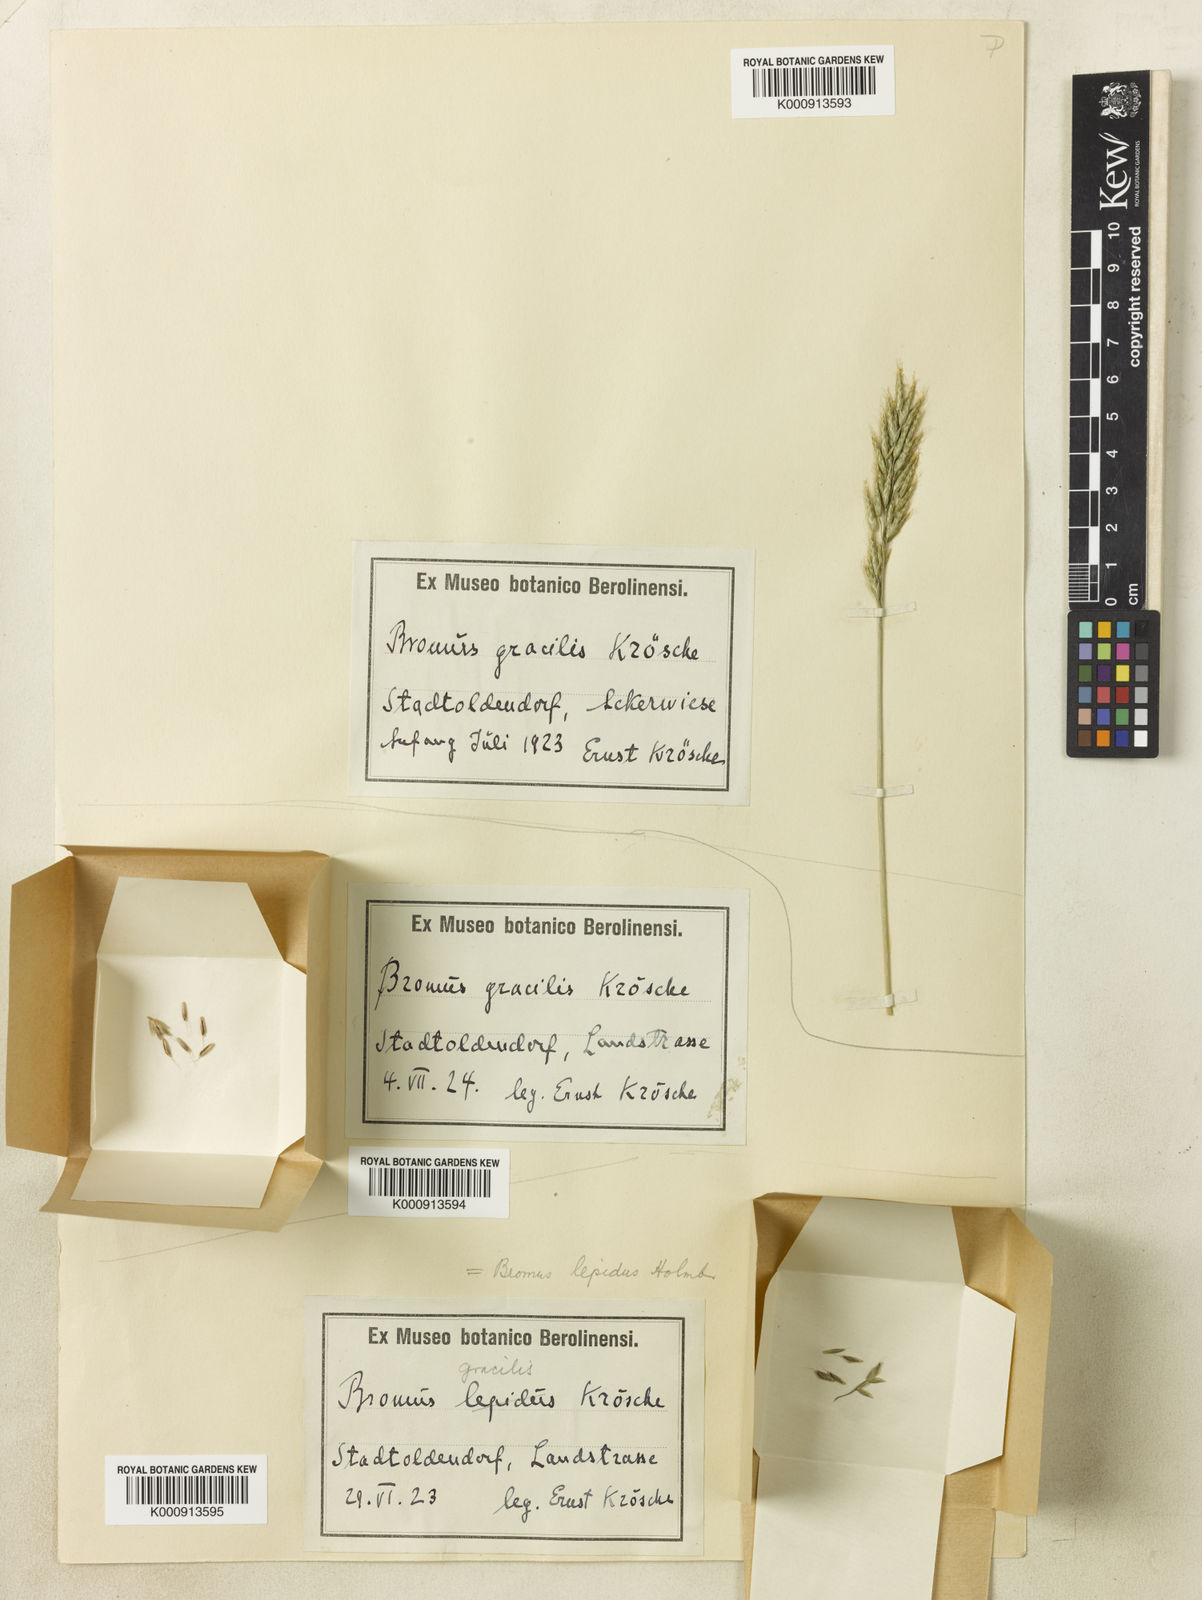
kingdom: Plantae
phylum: Tracheophyta
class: Liliopsida
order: Poales
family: Poaceae
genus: Bromus
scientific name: Bromus lepidus
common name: Slender soft-brome
